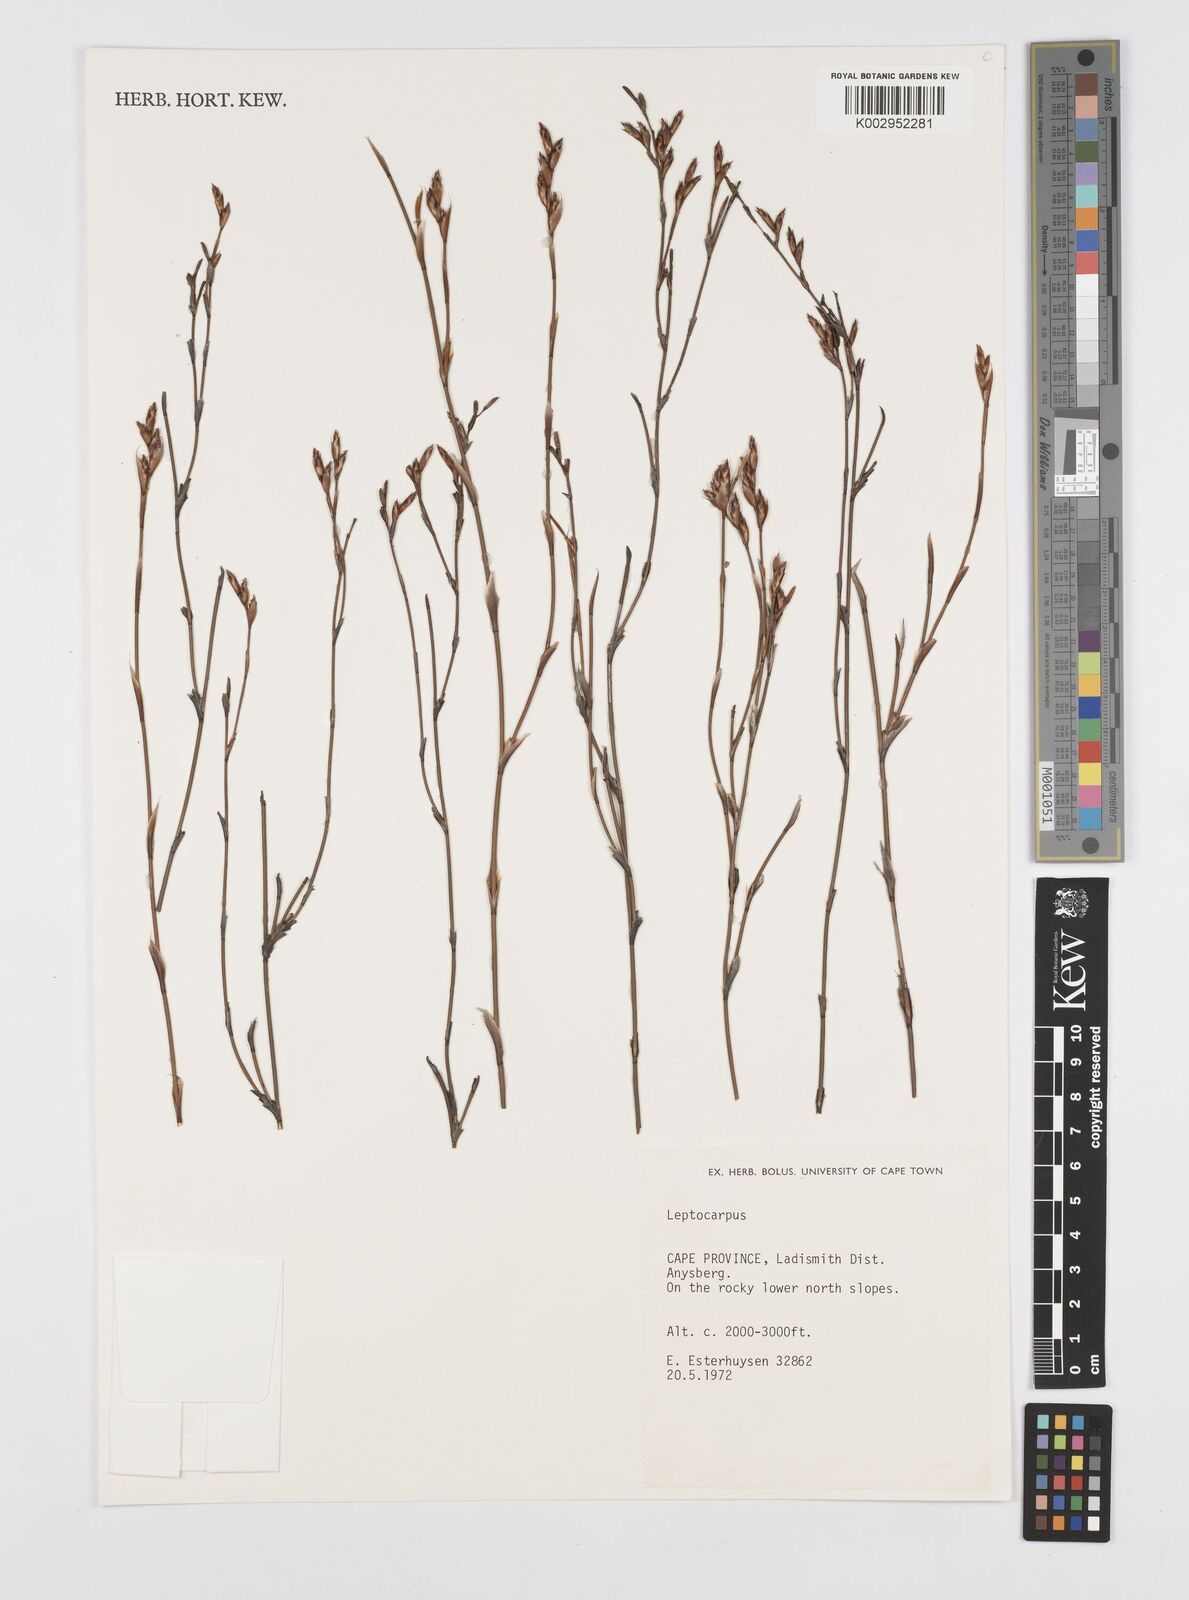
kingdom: Plantae
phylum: Tracheophyta
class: Liliopsida
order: Poales
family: Restionaceae
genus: Restio
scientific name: Restio
